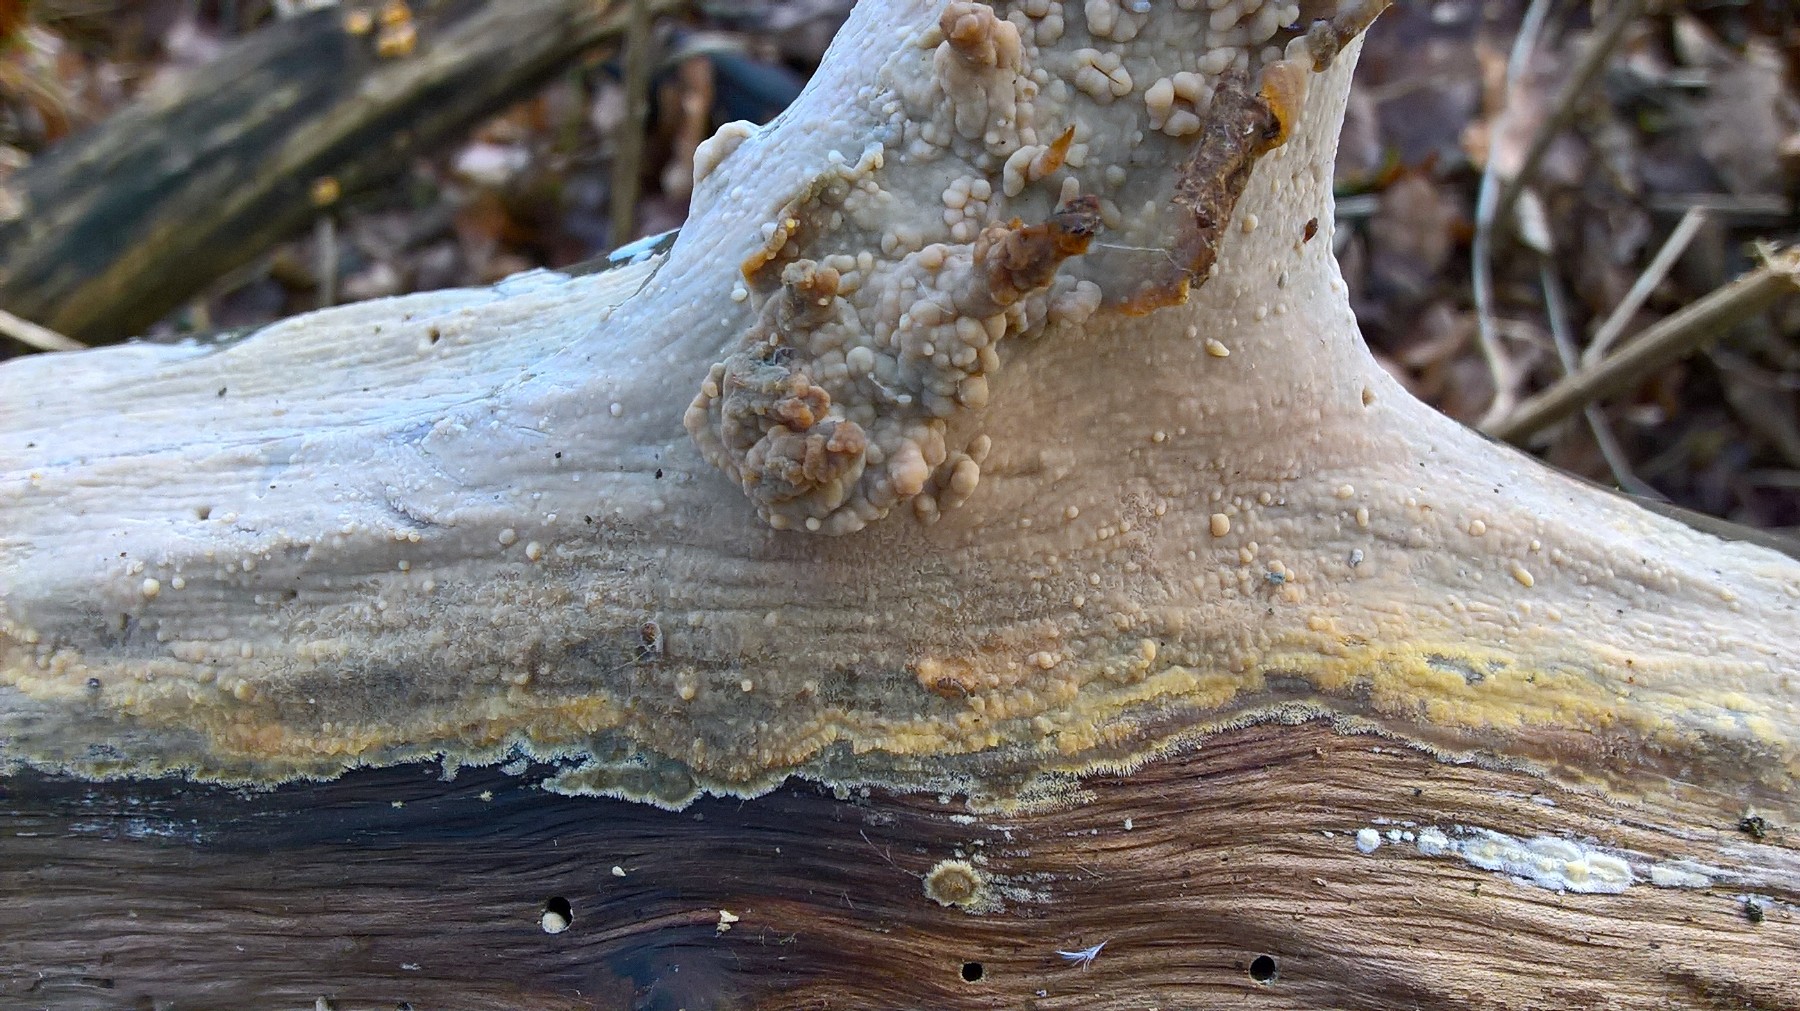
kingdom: Fungi
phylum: Basidiomycota
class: Agaricomycetes
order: Agaricales
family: Radulomycetaceae
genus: Radulomyces
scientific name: Radulomyces confluens
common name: glat naftalinskind
